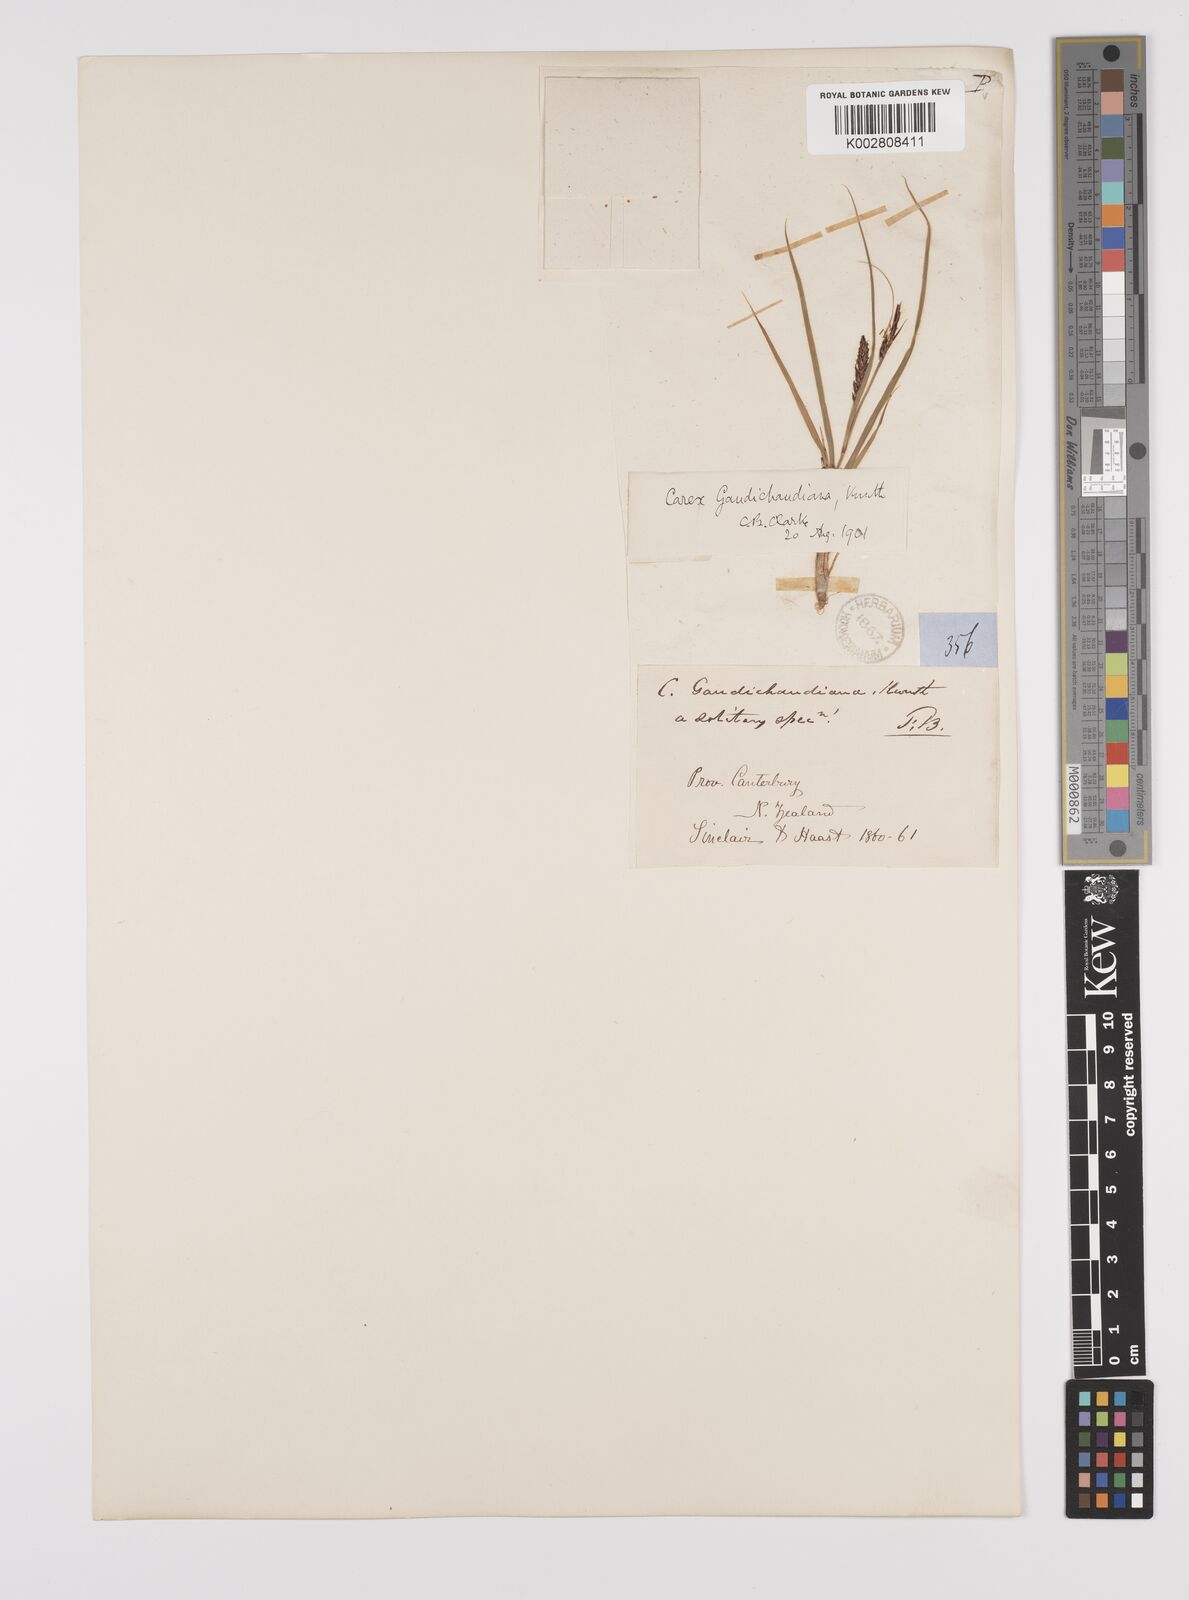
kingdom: Plantae
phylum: Tracheophyta
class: Liliopsida
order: Poales
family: Cyperaceae
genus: Carex
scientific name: Carex gaudichaudiana
